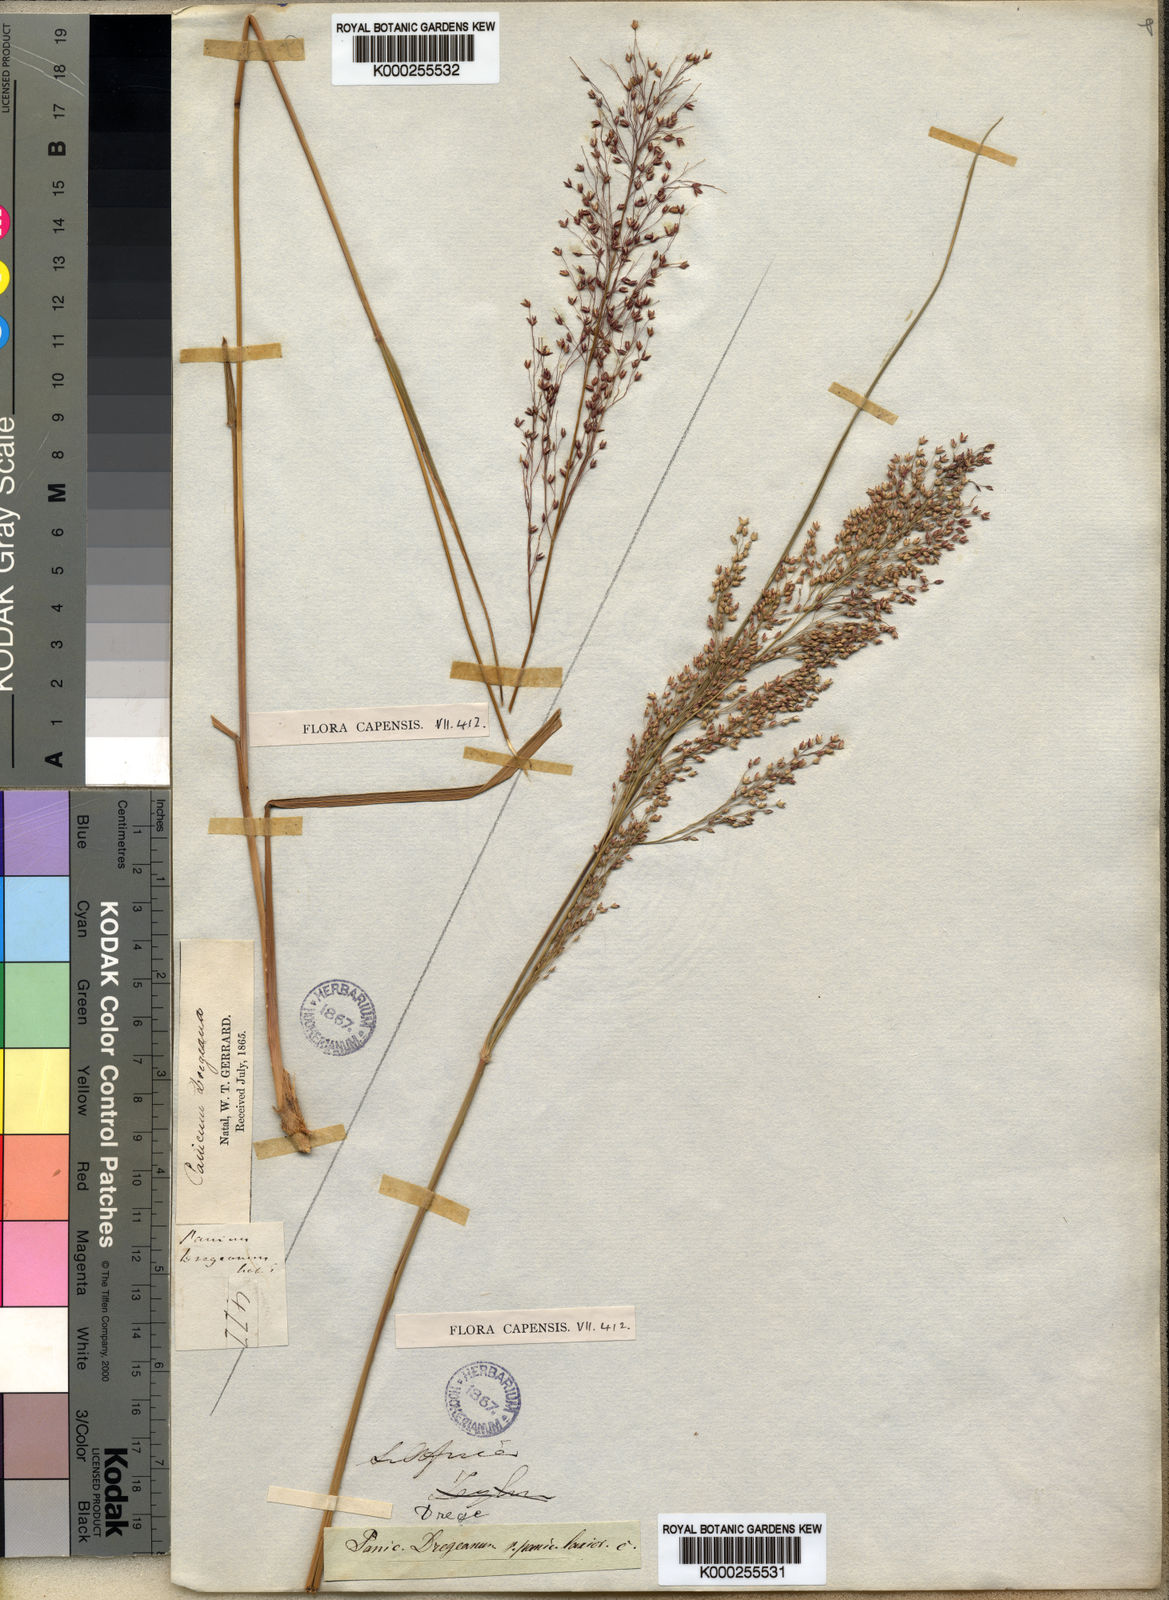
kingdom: Plantae
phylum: Tracheophyta
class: Liliopsida
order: Poales
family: Poaceae
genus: Panicum
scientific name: Panicum dregeanum
